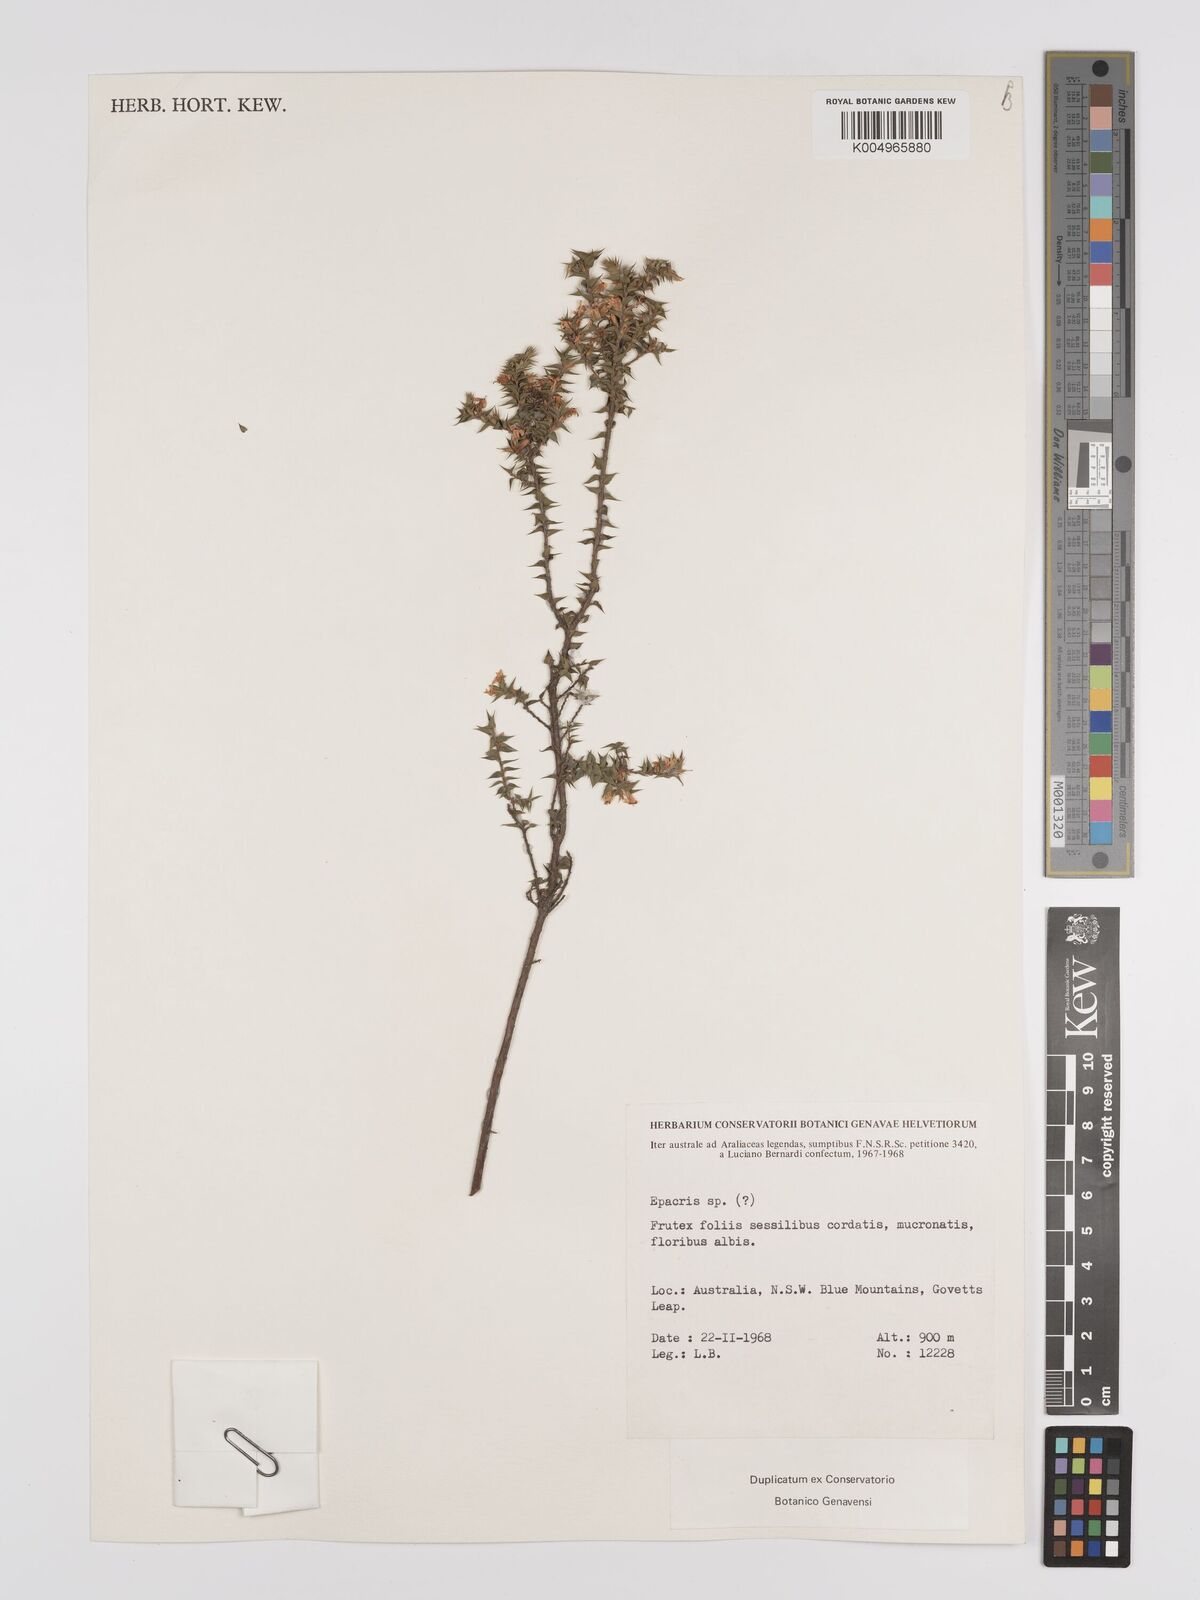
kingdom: Plantae
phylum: Tracheophyta
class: Magnoliopsida
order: Ericales
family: Ericaceae
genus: Epacris
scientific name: Epacris comberi
